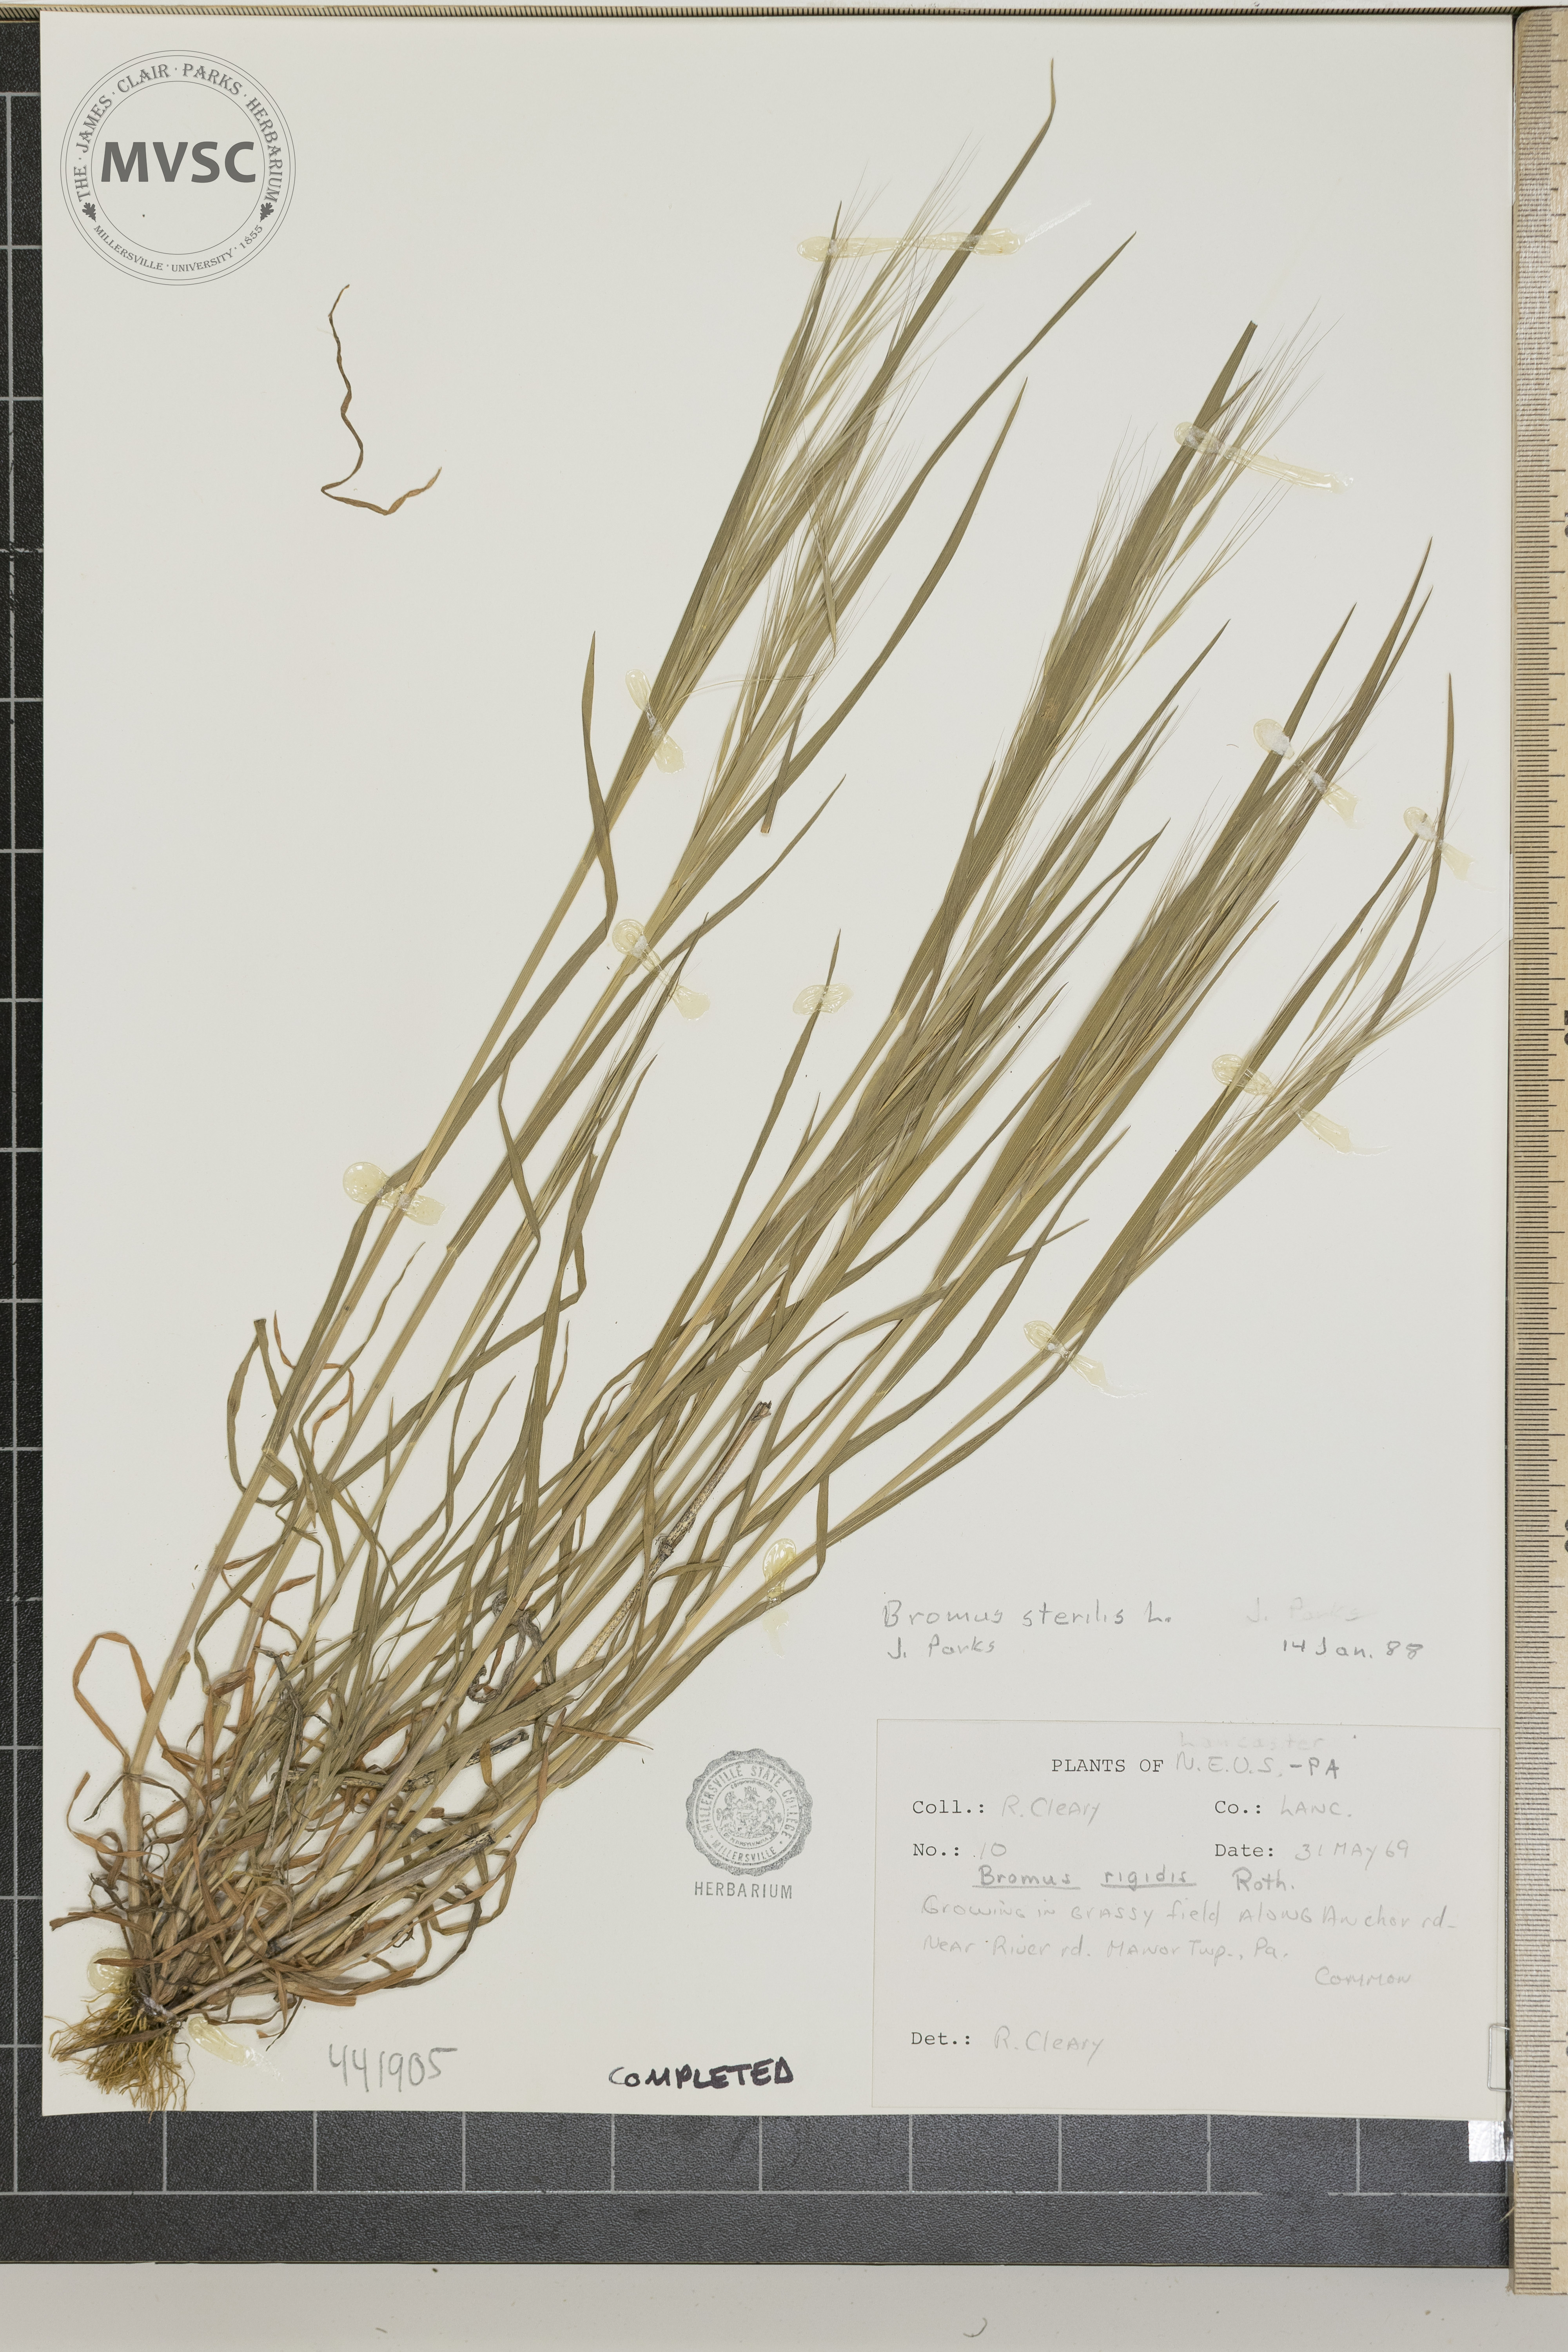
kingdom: Plantae
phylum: Tracheophyta
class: Liliopsida
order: Poales
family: Poaceae
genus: Bromus
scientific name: Bromus sterilis
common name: Poverty brome
